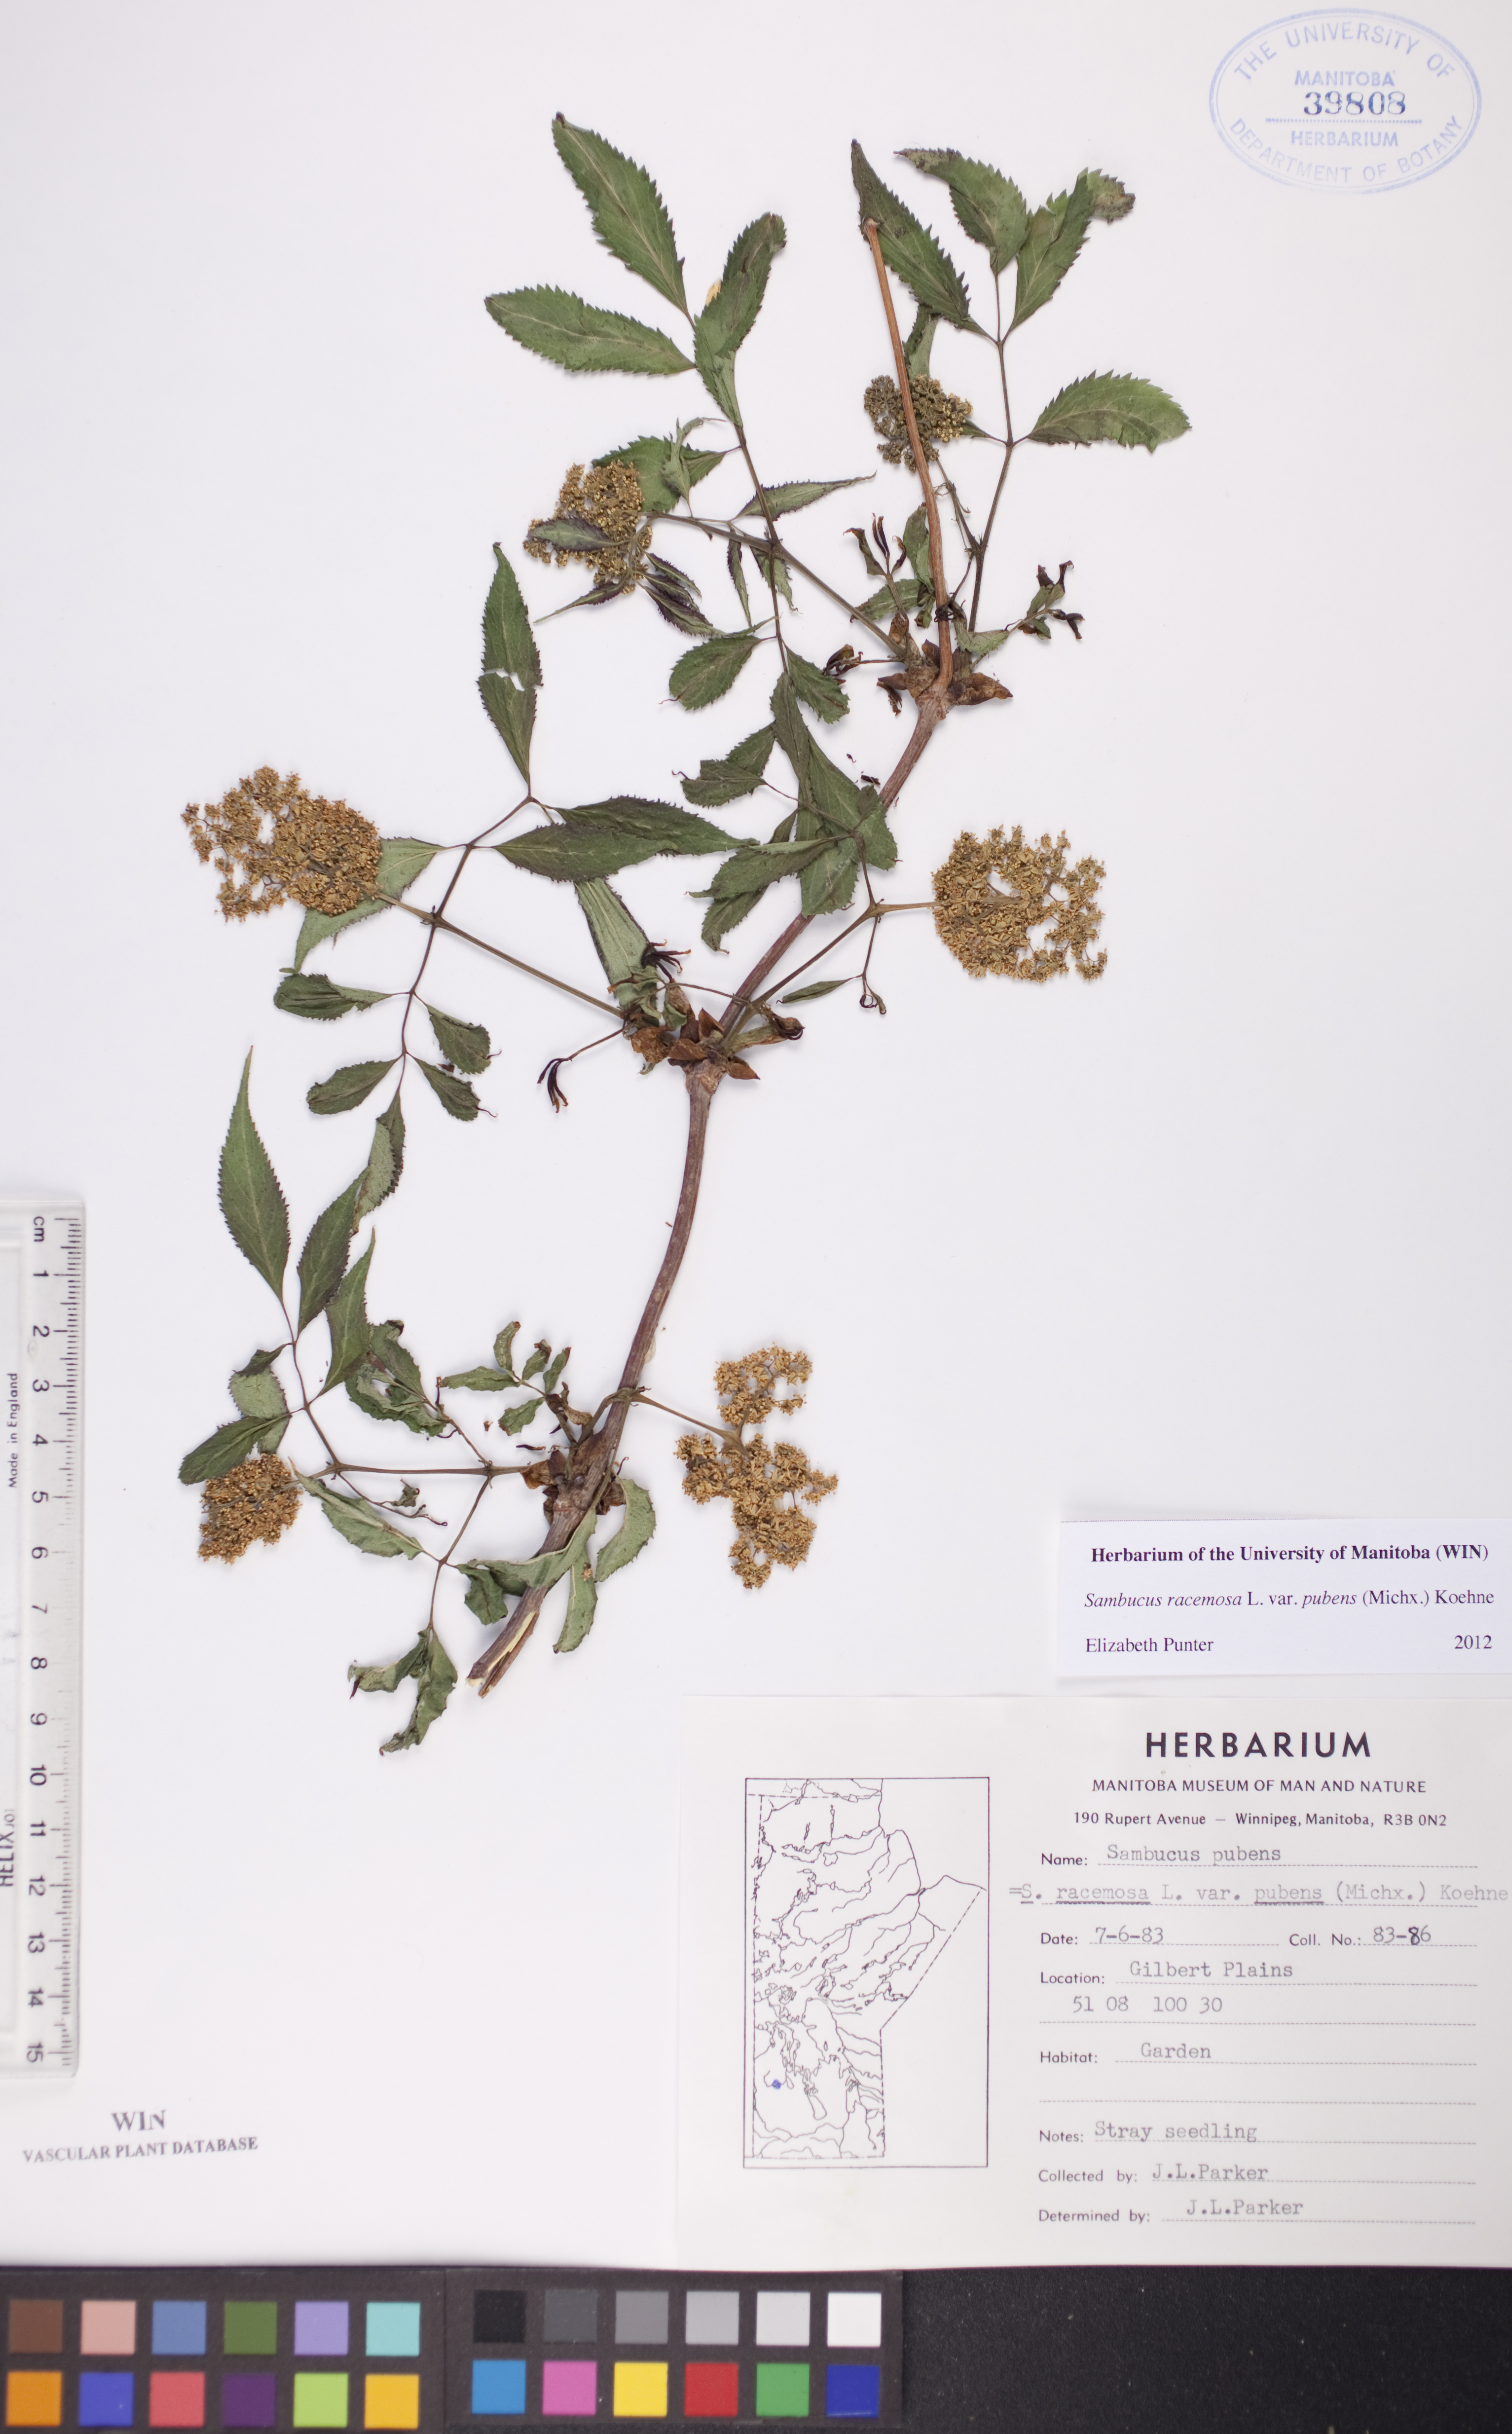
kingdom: Plantae
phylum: Tracheophyta
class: Magnoliopsida
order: Dipsacales
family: Viburnaceae
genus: Sambucus
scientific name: Sambucus racemosa
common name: Red-berried elder
